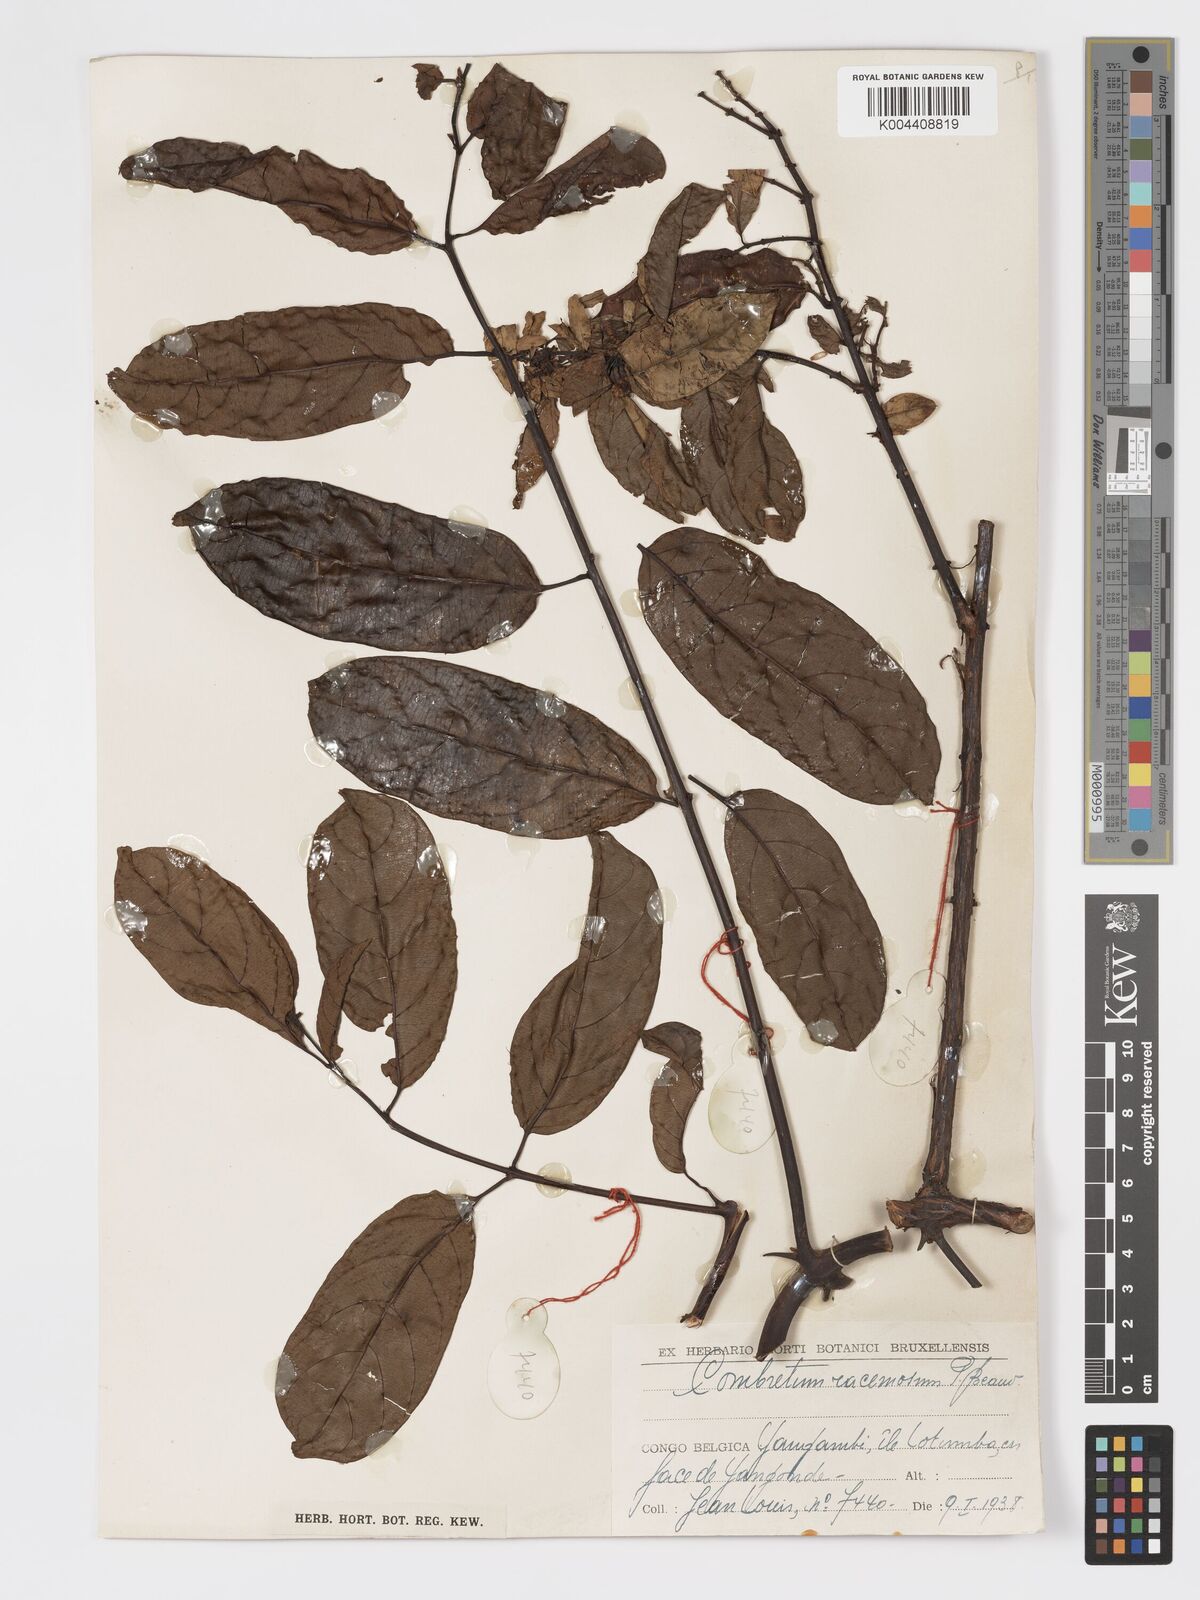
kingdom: Plantae
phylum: Tracheophyta
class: Magnoliopsida
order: Myrtales
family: Combretaceae
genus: Combretum
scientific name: Combretum racemosum
